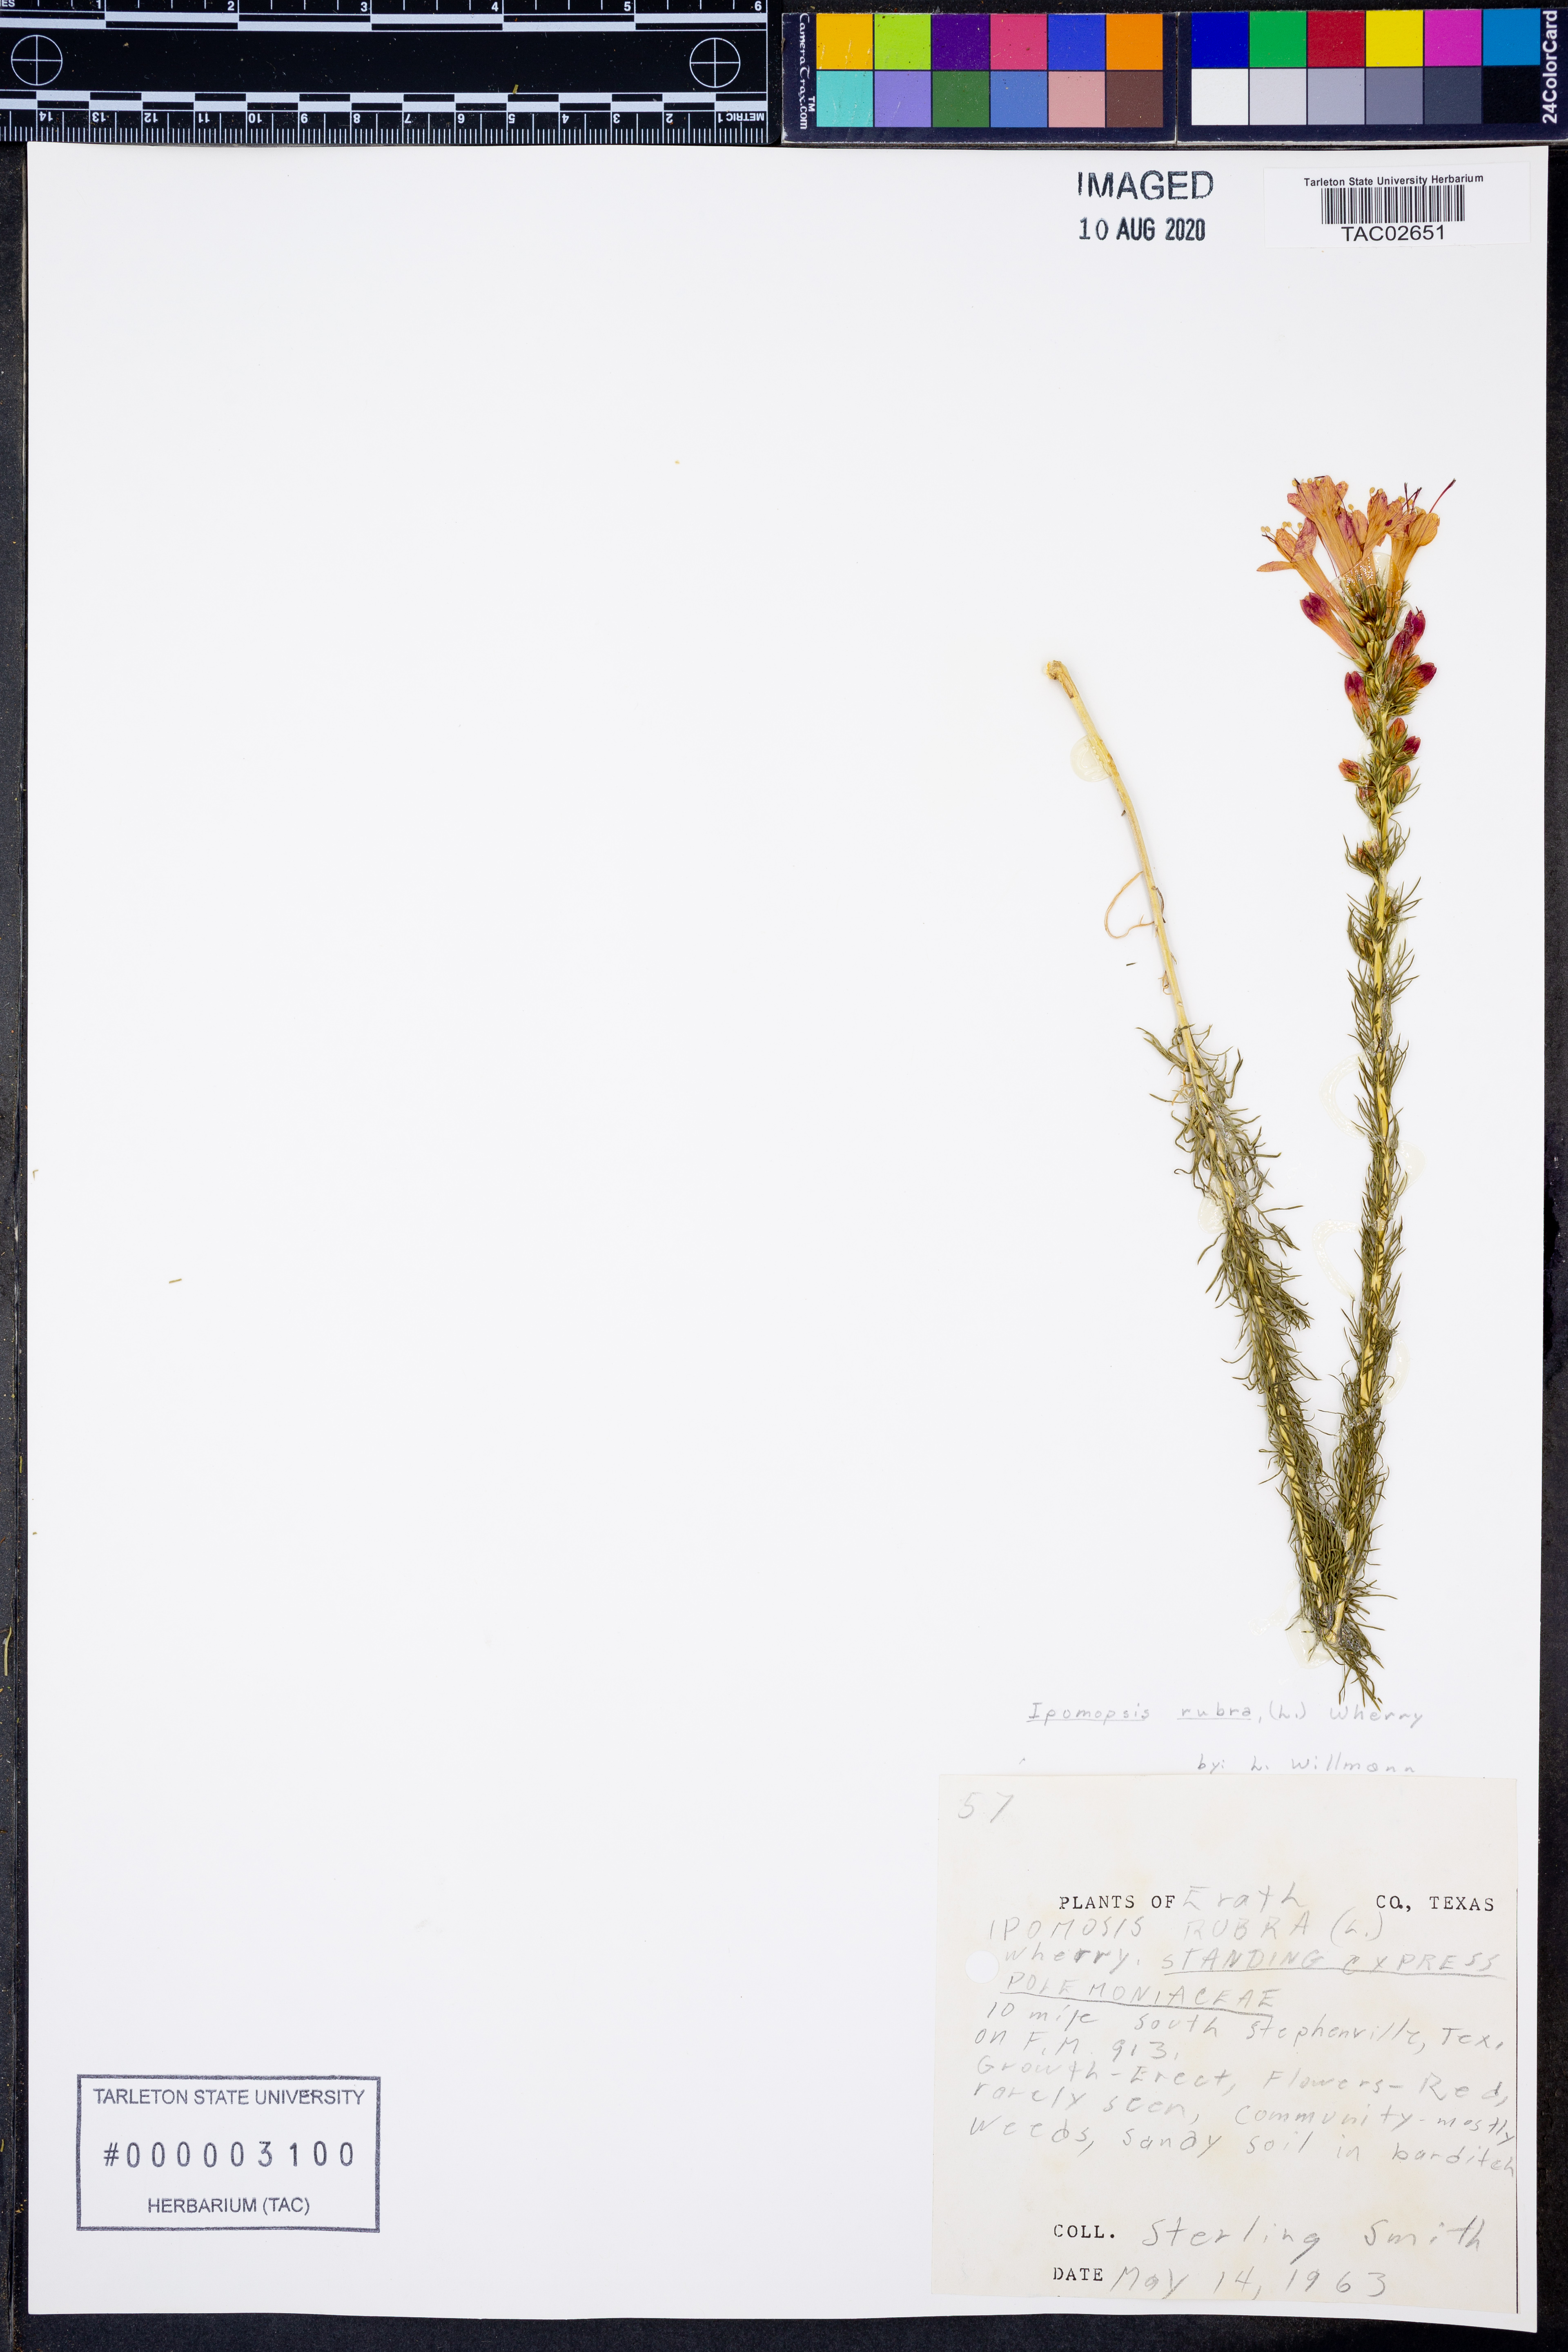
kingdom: Plantae
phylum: Tracheophyta
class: Magnoliopsida
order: Ericales
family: Polemoniaceae
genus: Ipomopsis
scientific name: Ipomopsis rubra
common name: Skyrocket
